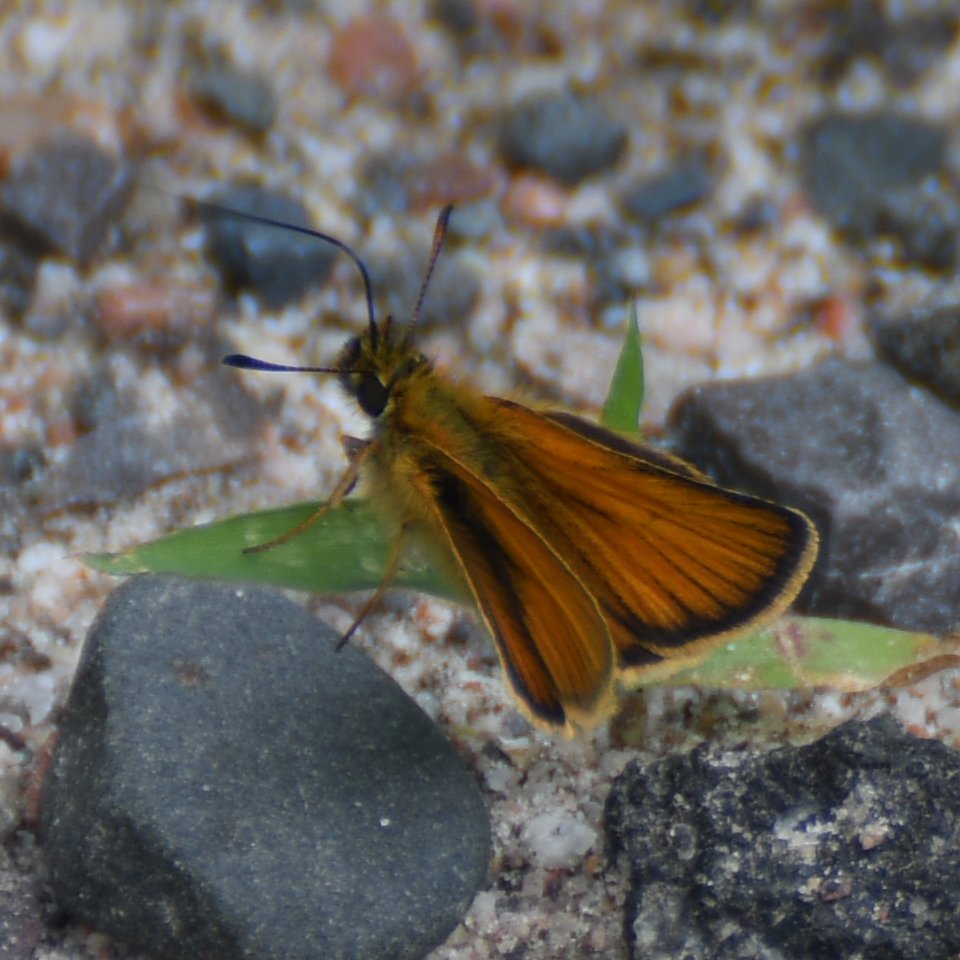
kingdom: Animalia
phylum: Arthropoda
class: Insecta
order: Lepidoptera
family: Hesperiidae
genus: Thymelicus
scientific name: Thymelicus lineola
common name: European Skipper
